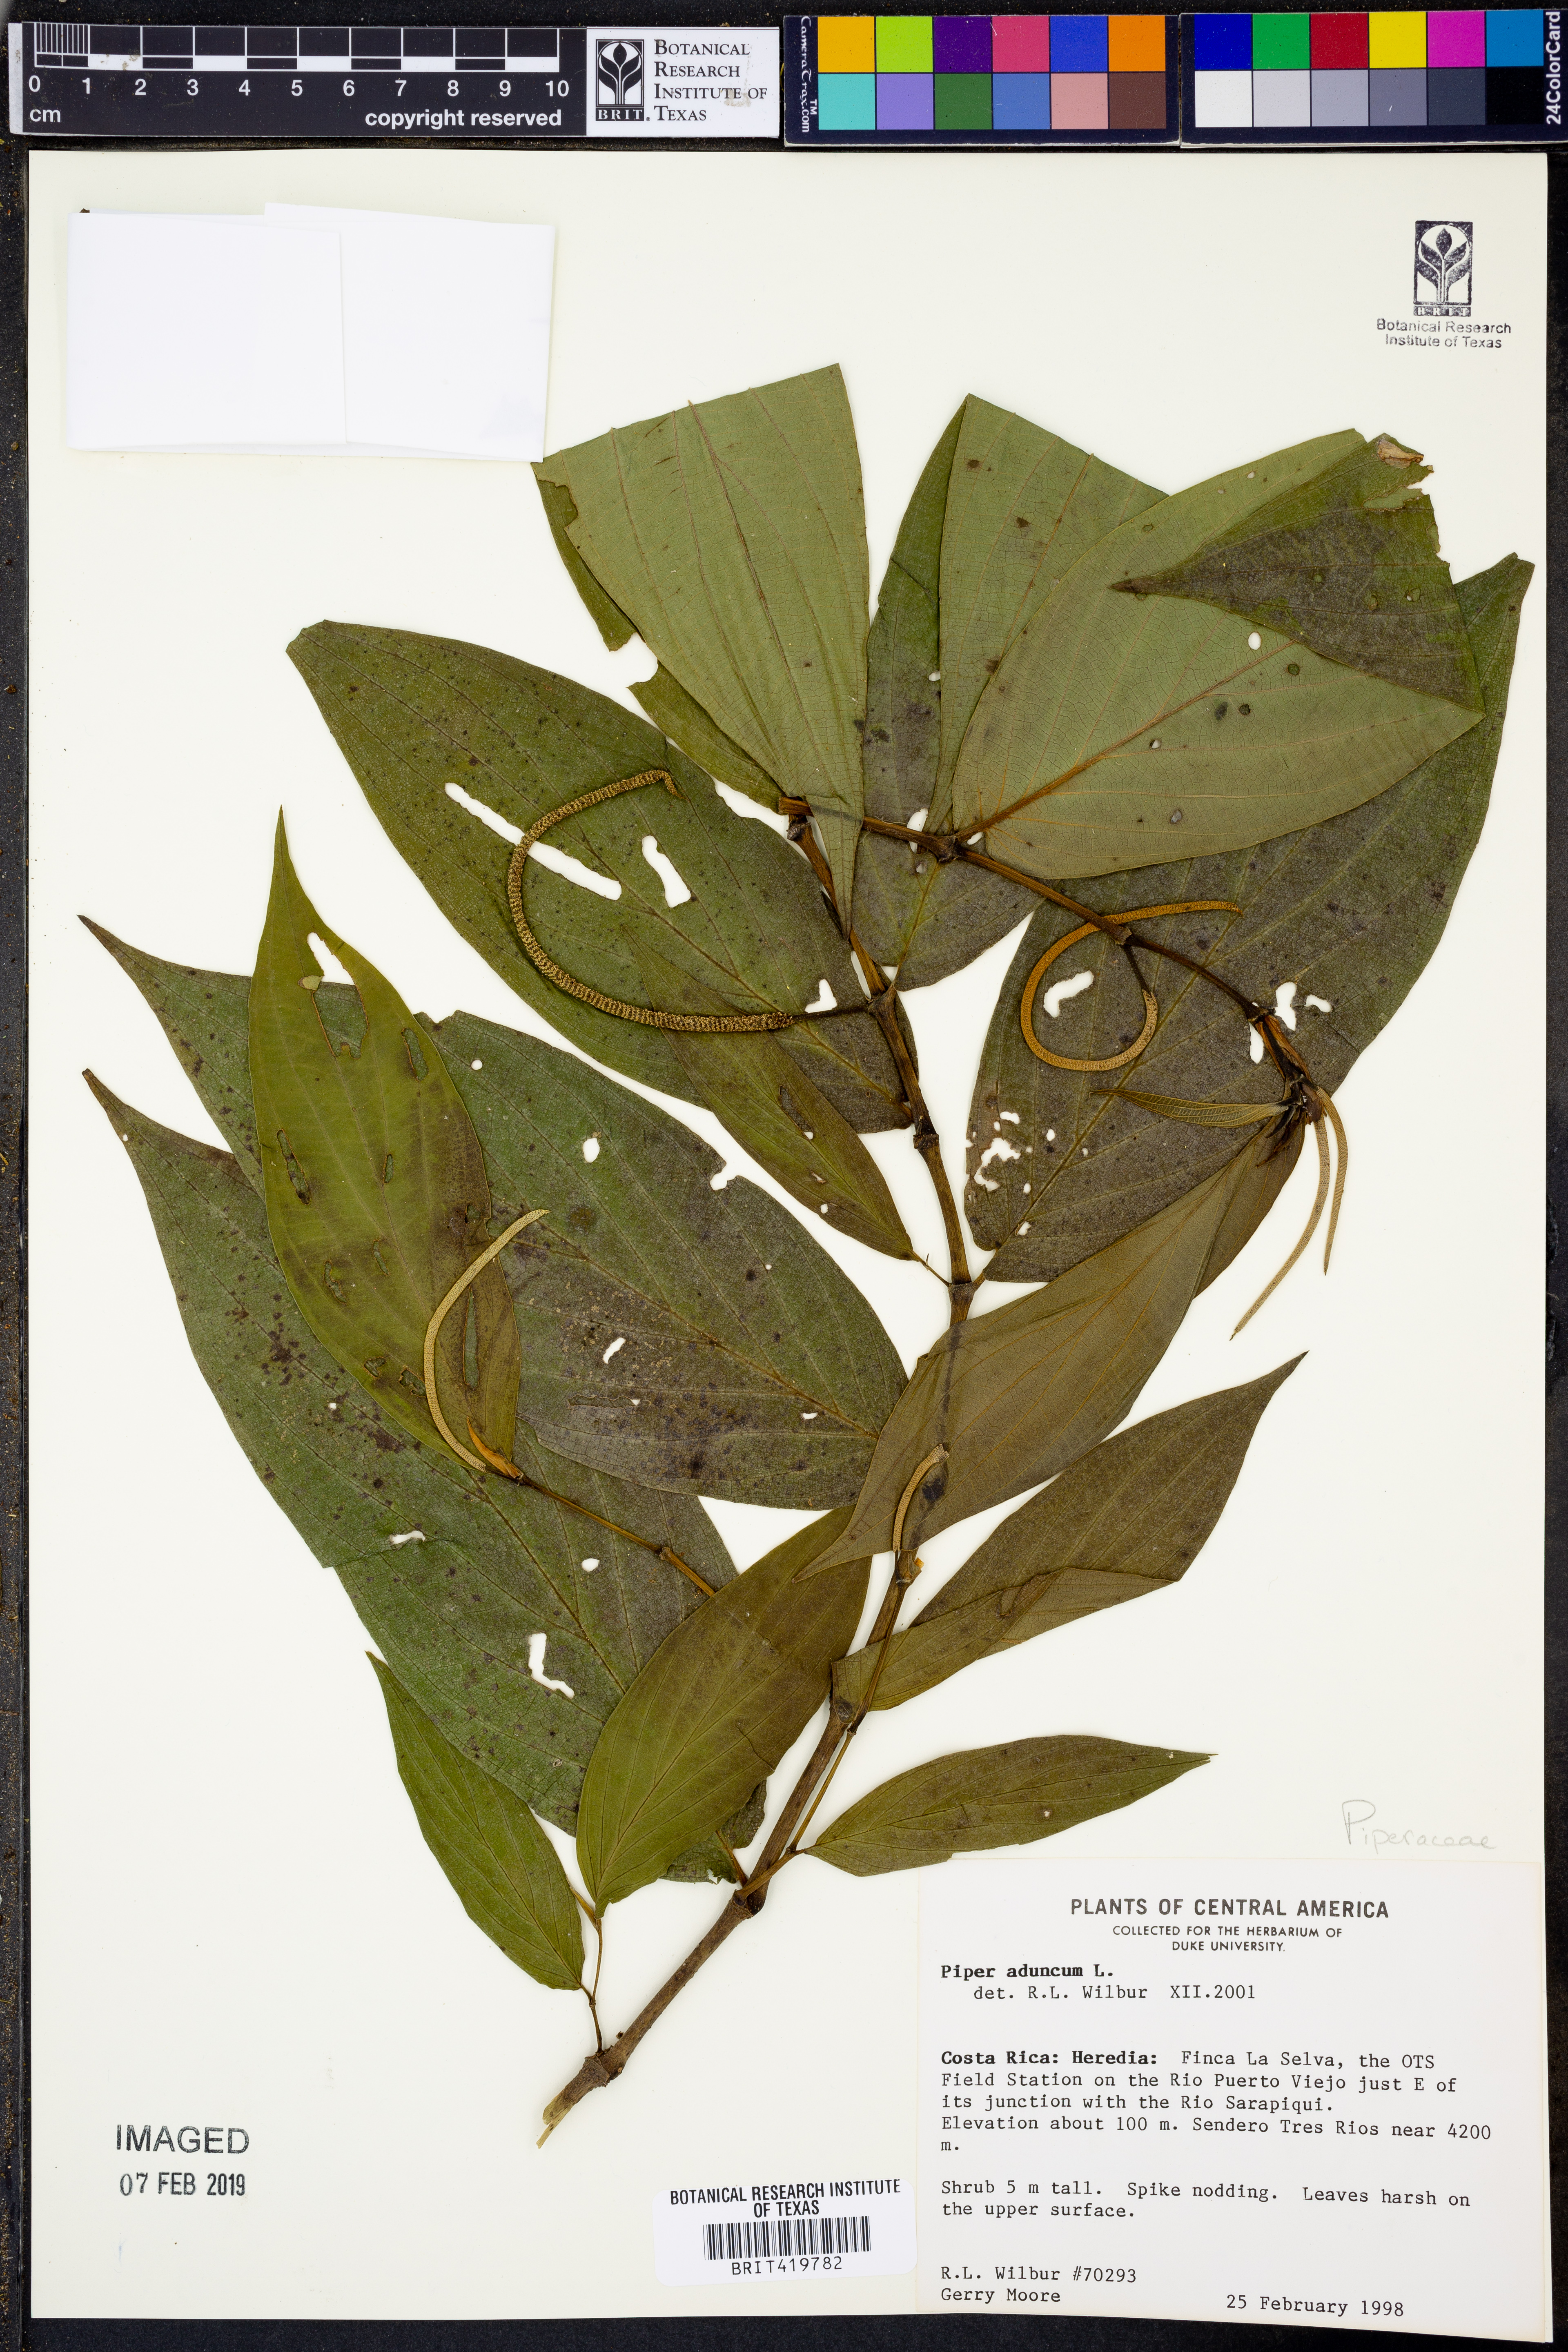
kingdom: Plantae
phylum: Tracheophyta
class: Magnoliopsida
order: Piperales
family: Piperaceae
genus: Piper
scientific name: Piper aduncum
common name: Spiked pepper
